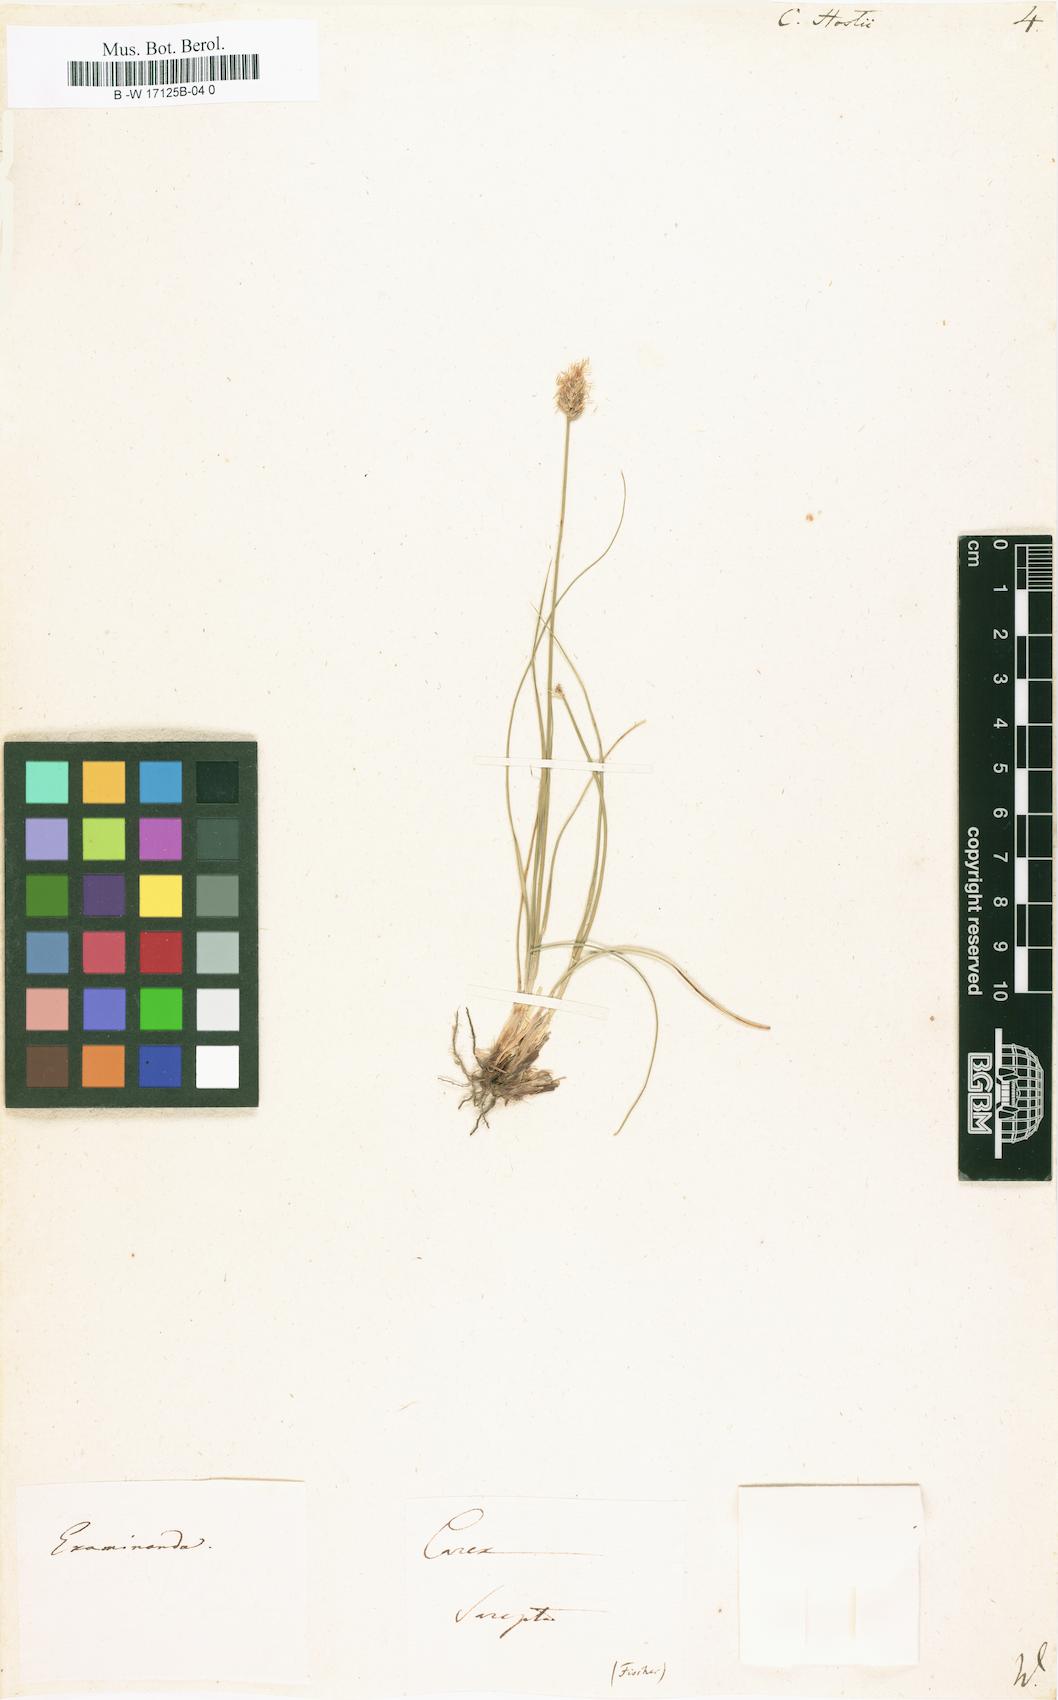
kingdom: Plantae
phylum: Tracheophyta
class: Liliopsida
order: Poales
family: Cyperaceae
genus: Carex
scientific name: Carex
